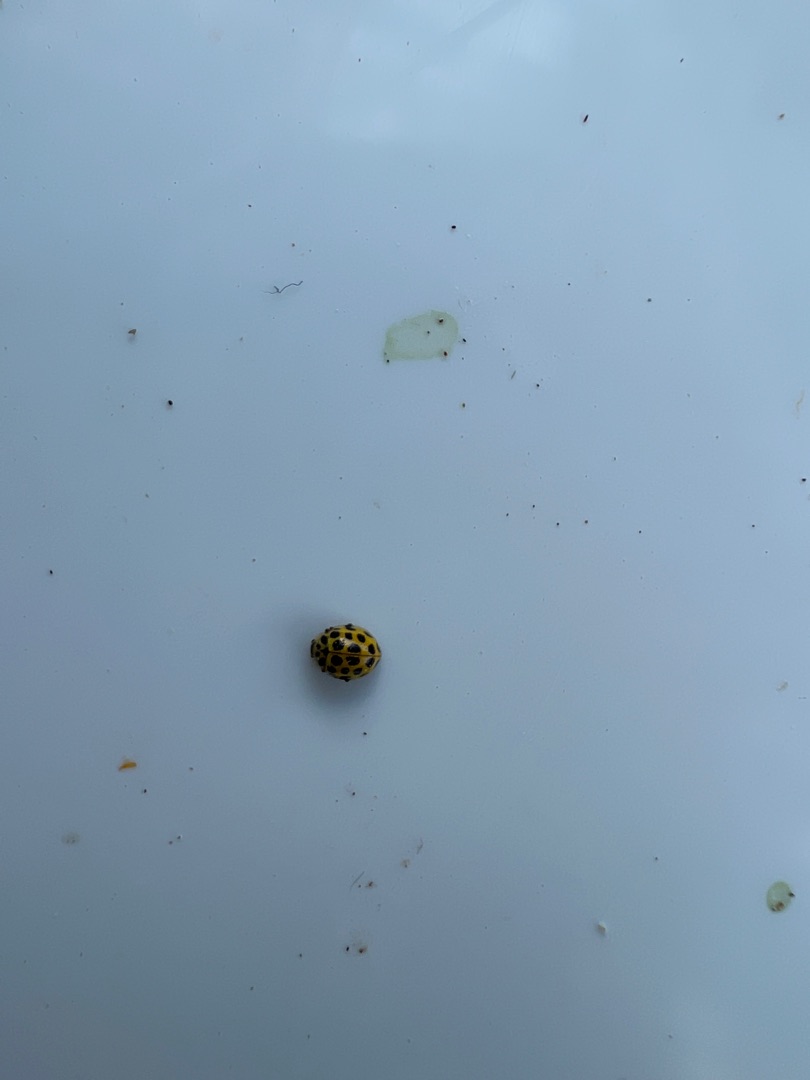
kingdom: Animalia
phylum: Arthropoda
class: Insecta
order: Coleoptera
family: Coccinellidae
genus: Psyllobora
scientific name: Psyllobora vigintiduopunctata
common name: Toogtyveplettet mariehøne
